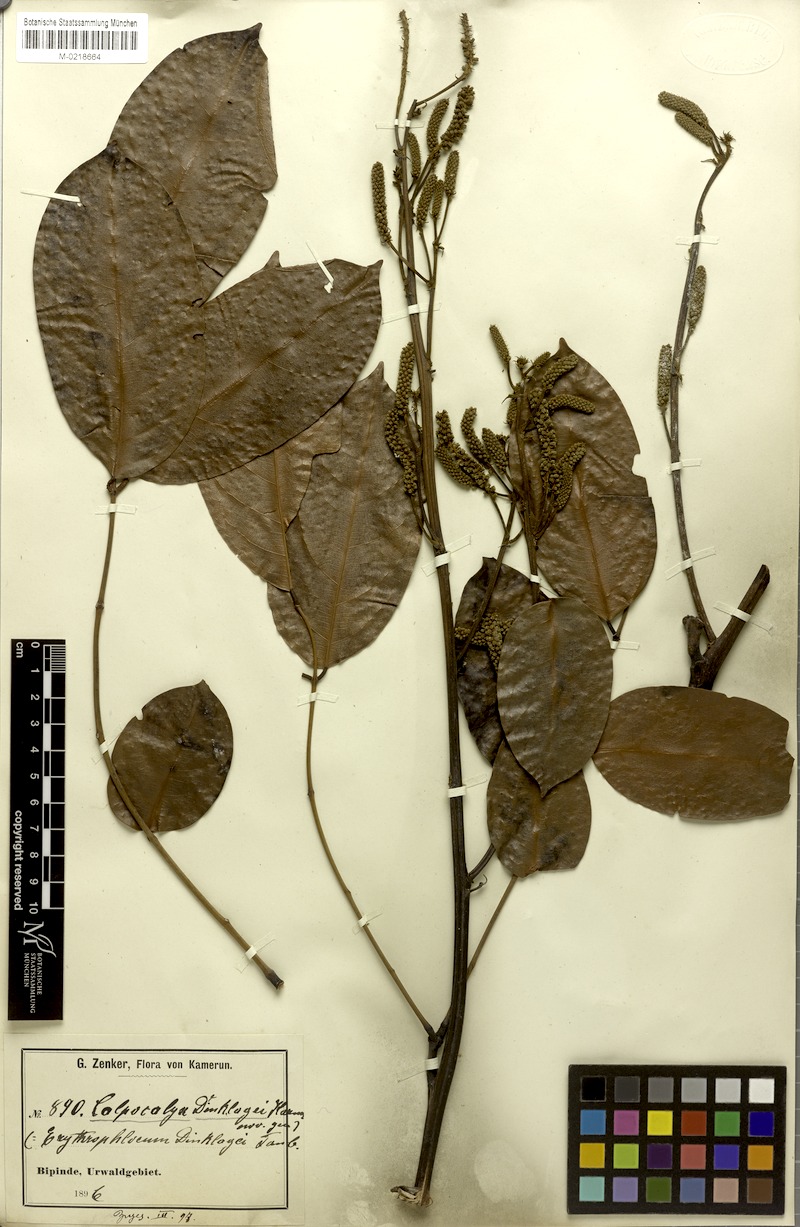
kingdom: Plantae
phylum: Tracheophyta
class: Magnoliopsida
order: Fabales
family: Fabaceae
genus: Calpocalyx
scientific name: Calpocalyx dinklagei
